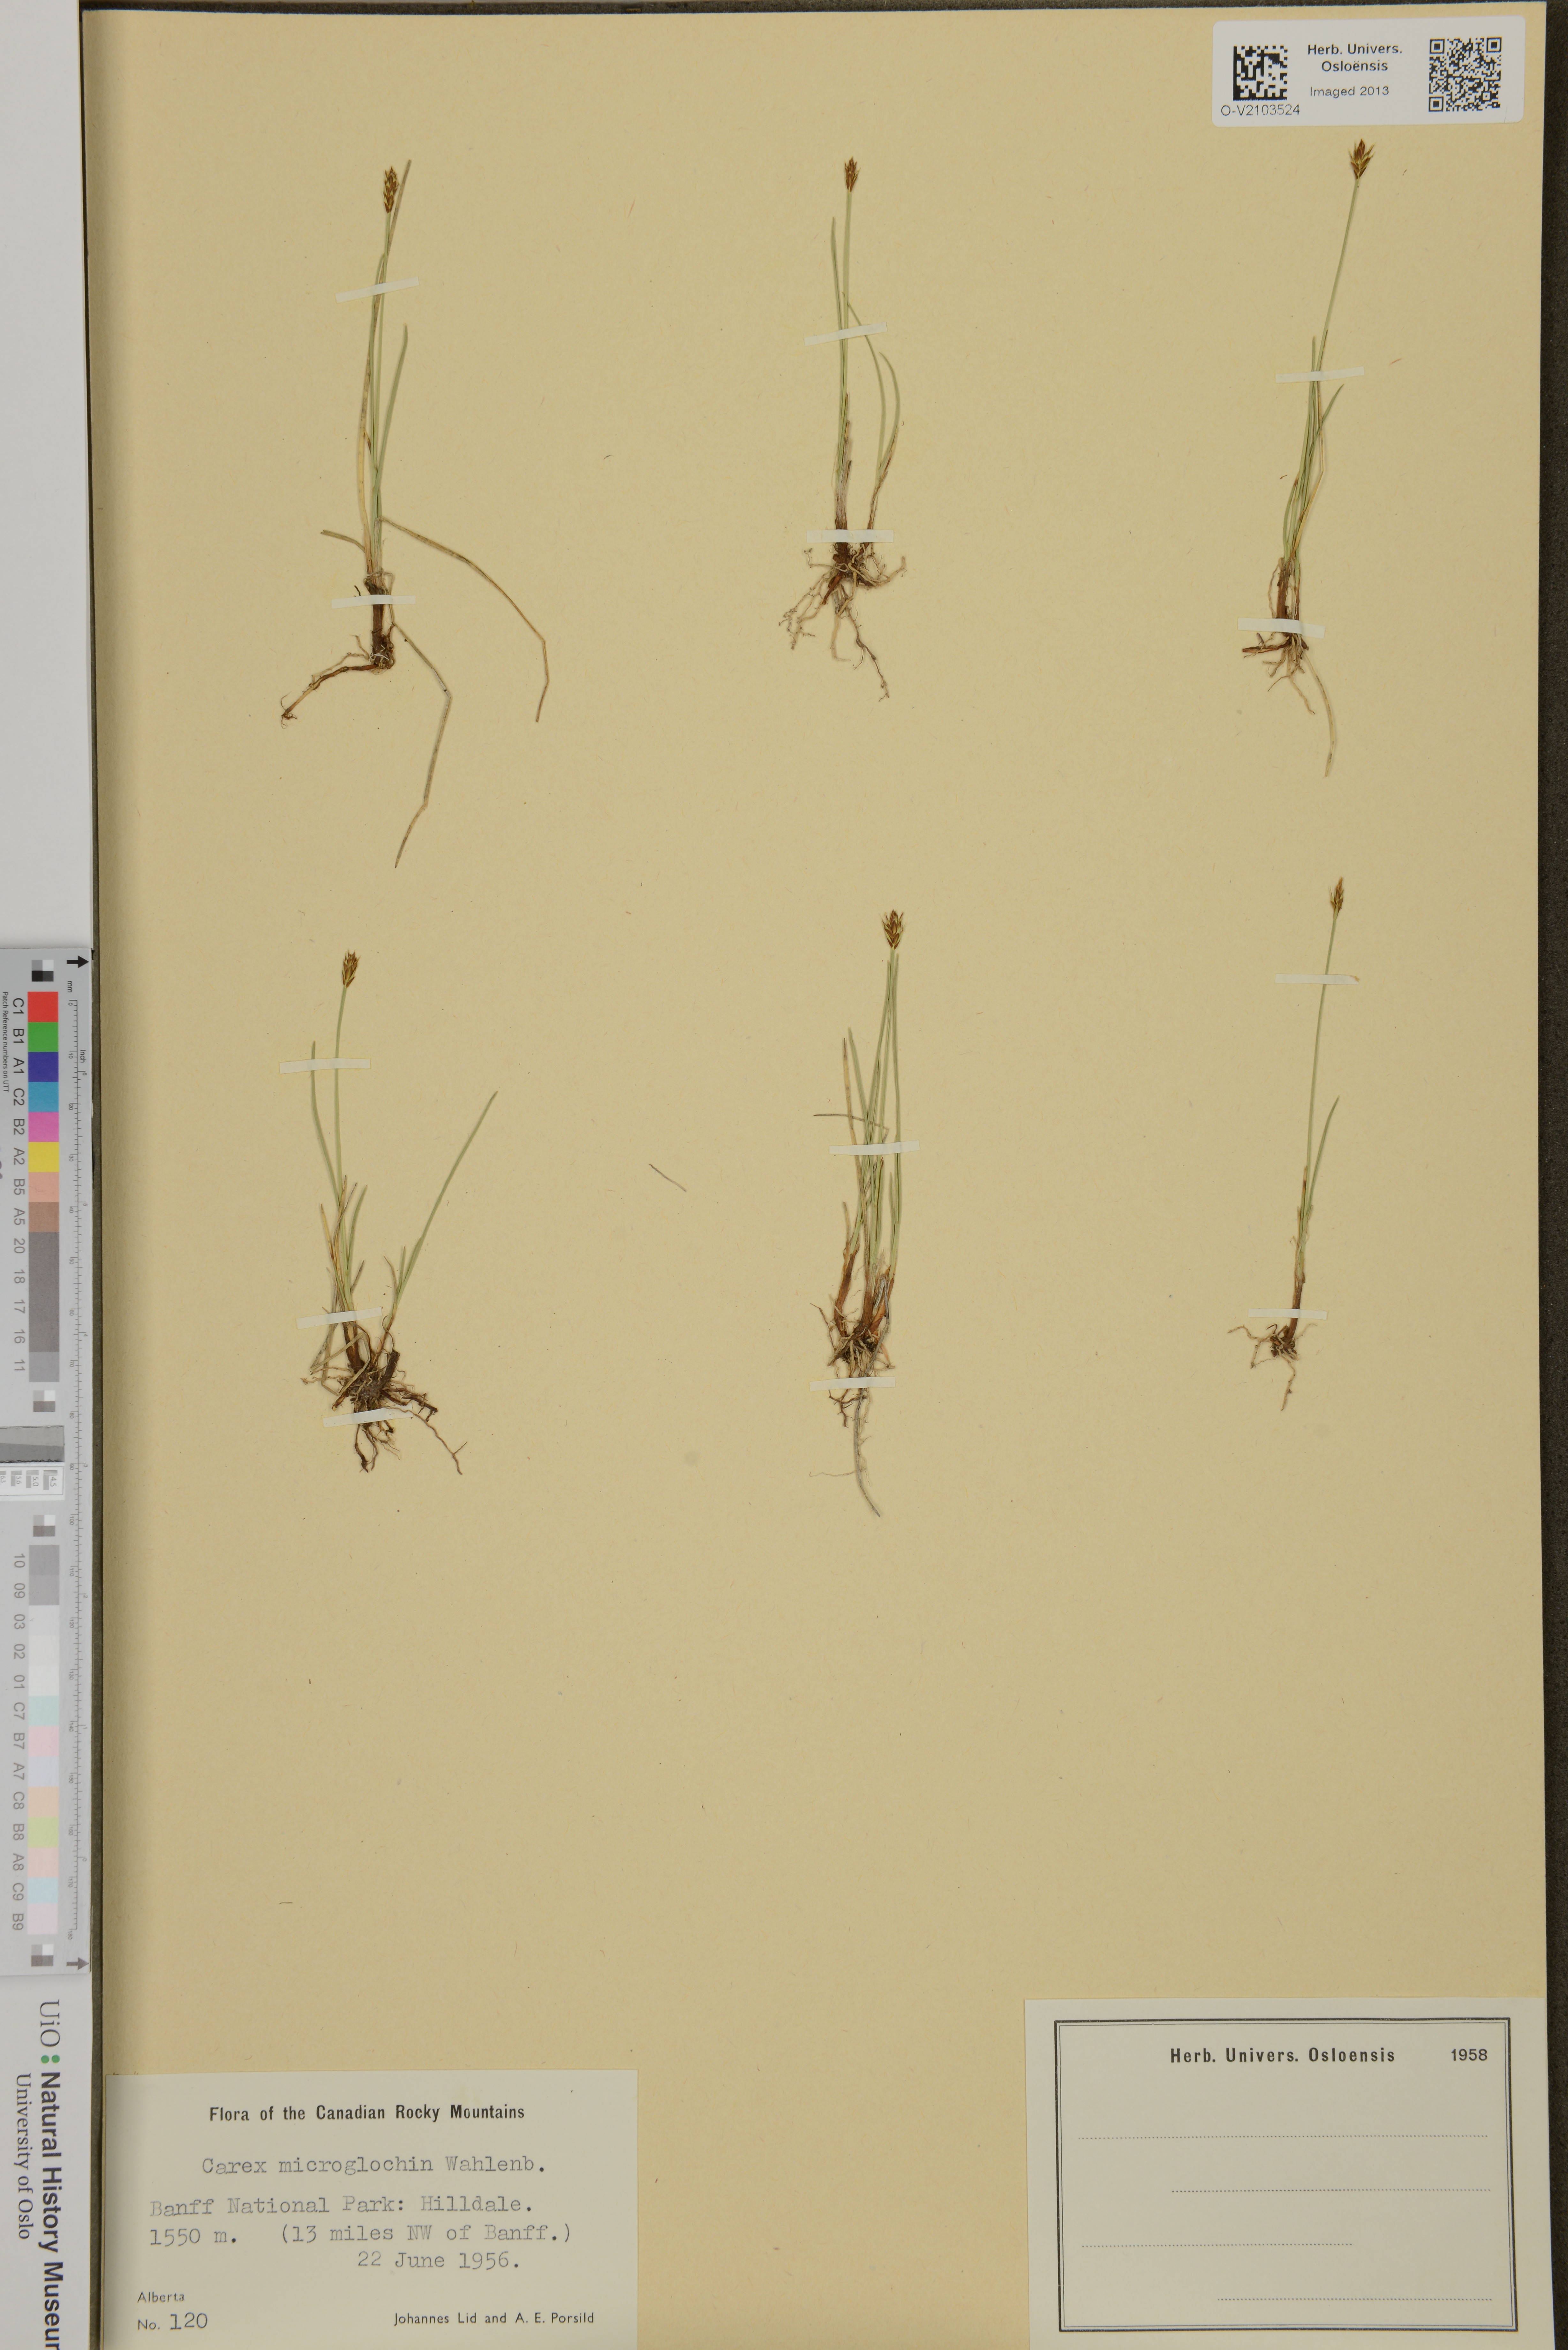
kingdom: Plantae
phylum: Tracheophyta
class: Liliopsida
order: Poales
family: Cyperaceae
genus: Carex
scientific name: Carex microglochin
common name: Bristle sedge
